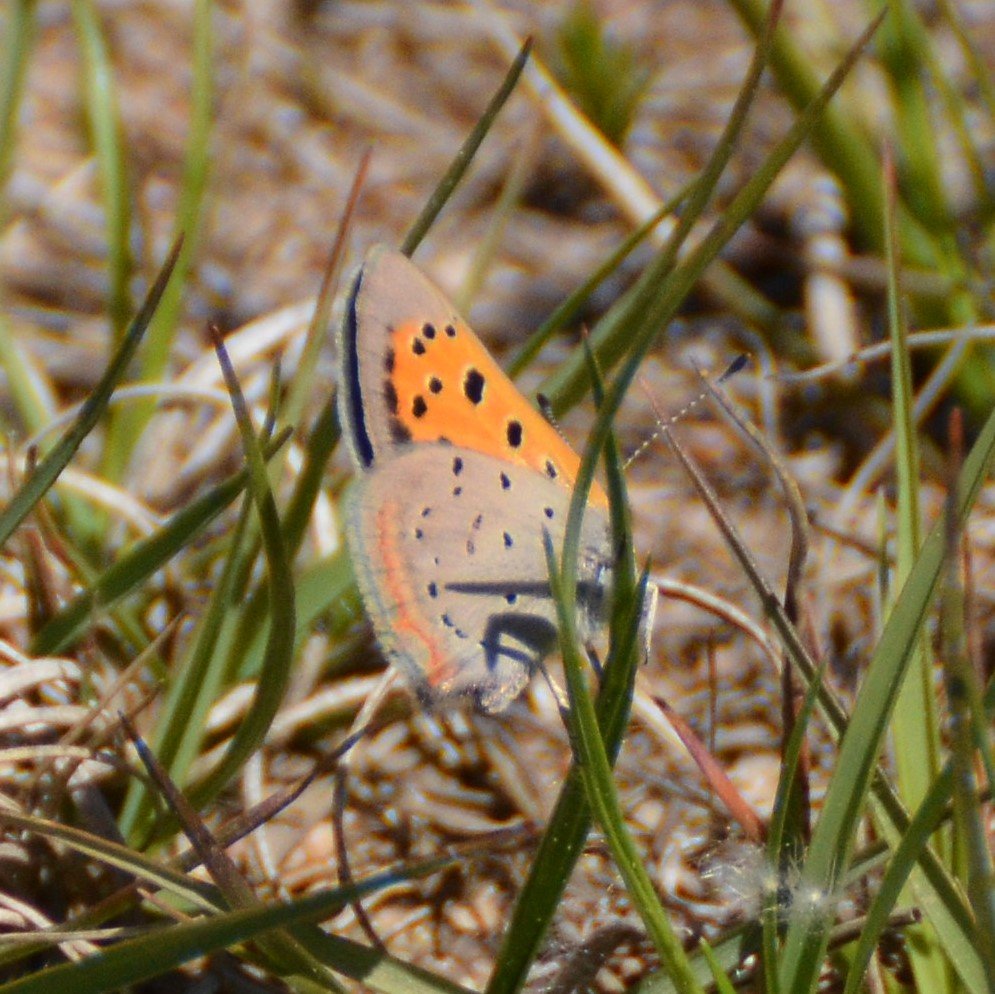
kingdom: Animalia
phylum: Arthropoda
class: Insecta
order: Lepidoptera
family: Lycaenidae
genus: Lycaena
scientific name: Lycaena phlaeas
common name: American Copper
